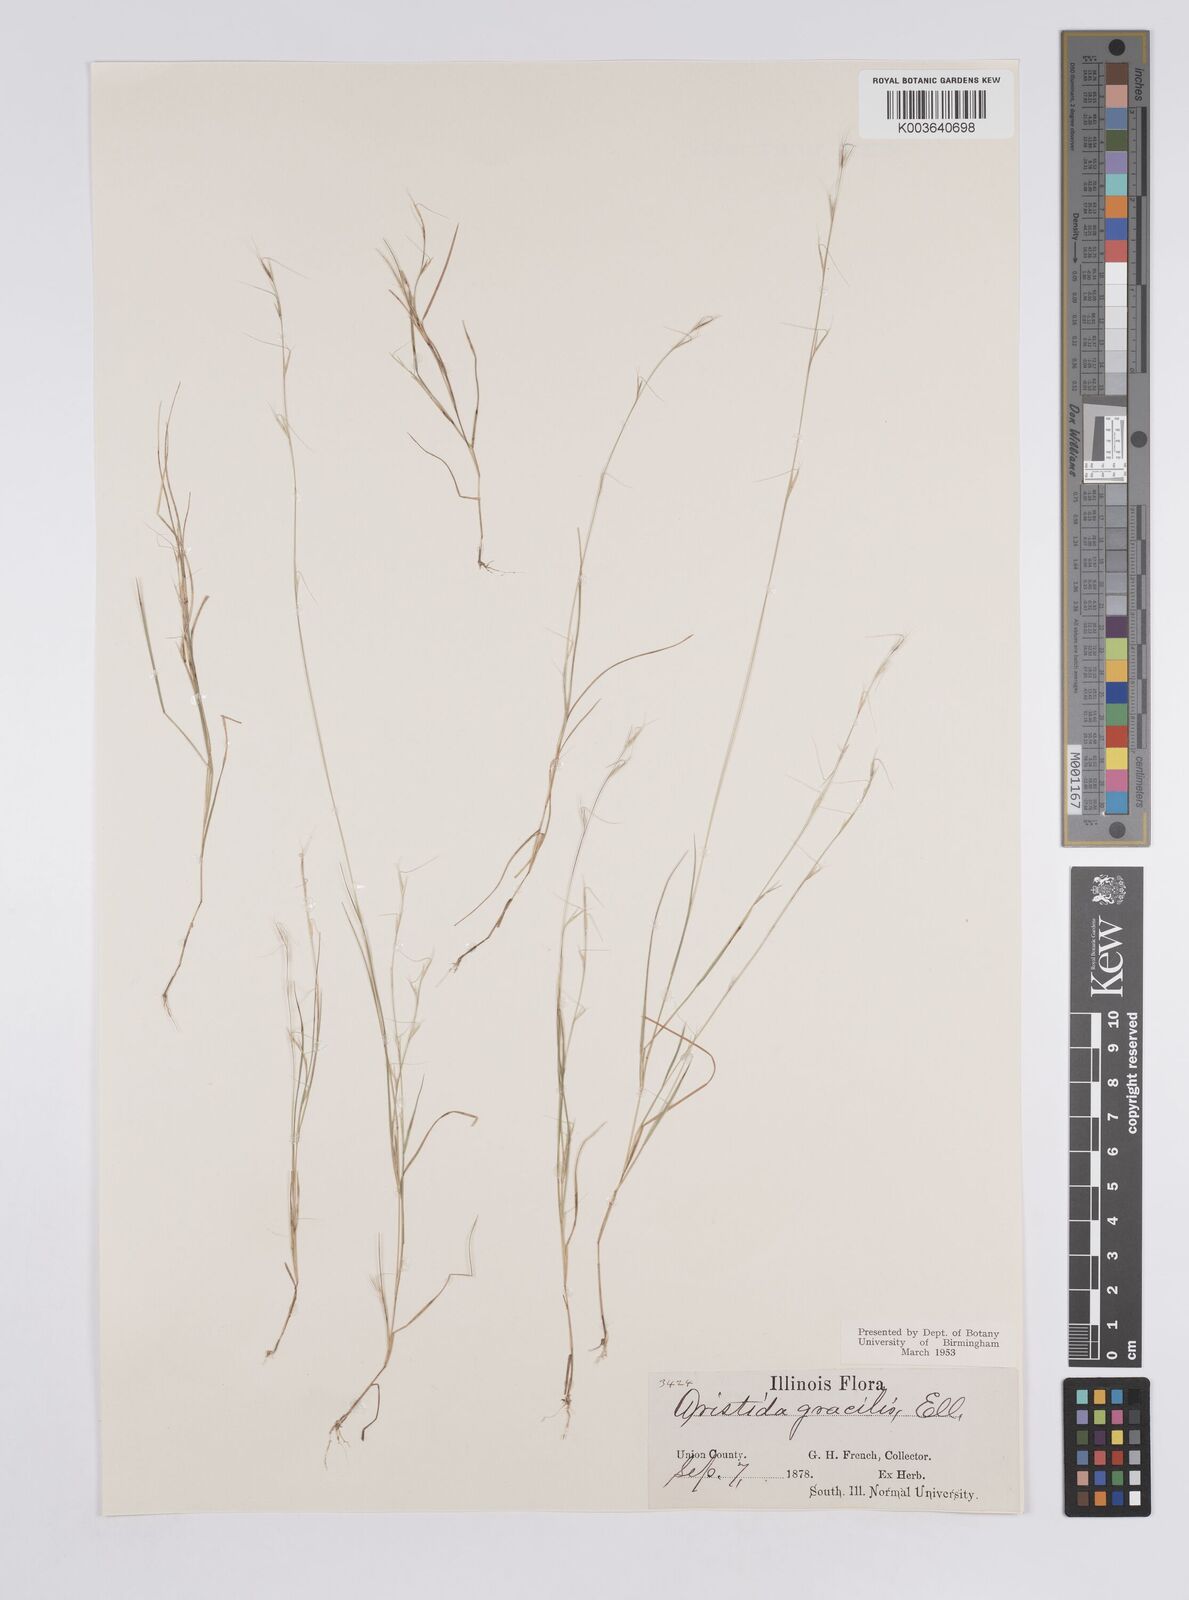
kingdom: Plantae
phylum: Tracheophyta
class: Liliopsida
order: Poales
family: Poaceae
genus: Aristida
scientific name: Aristida longespica
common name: Long-spiked triple-awned grass
